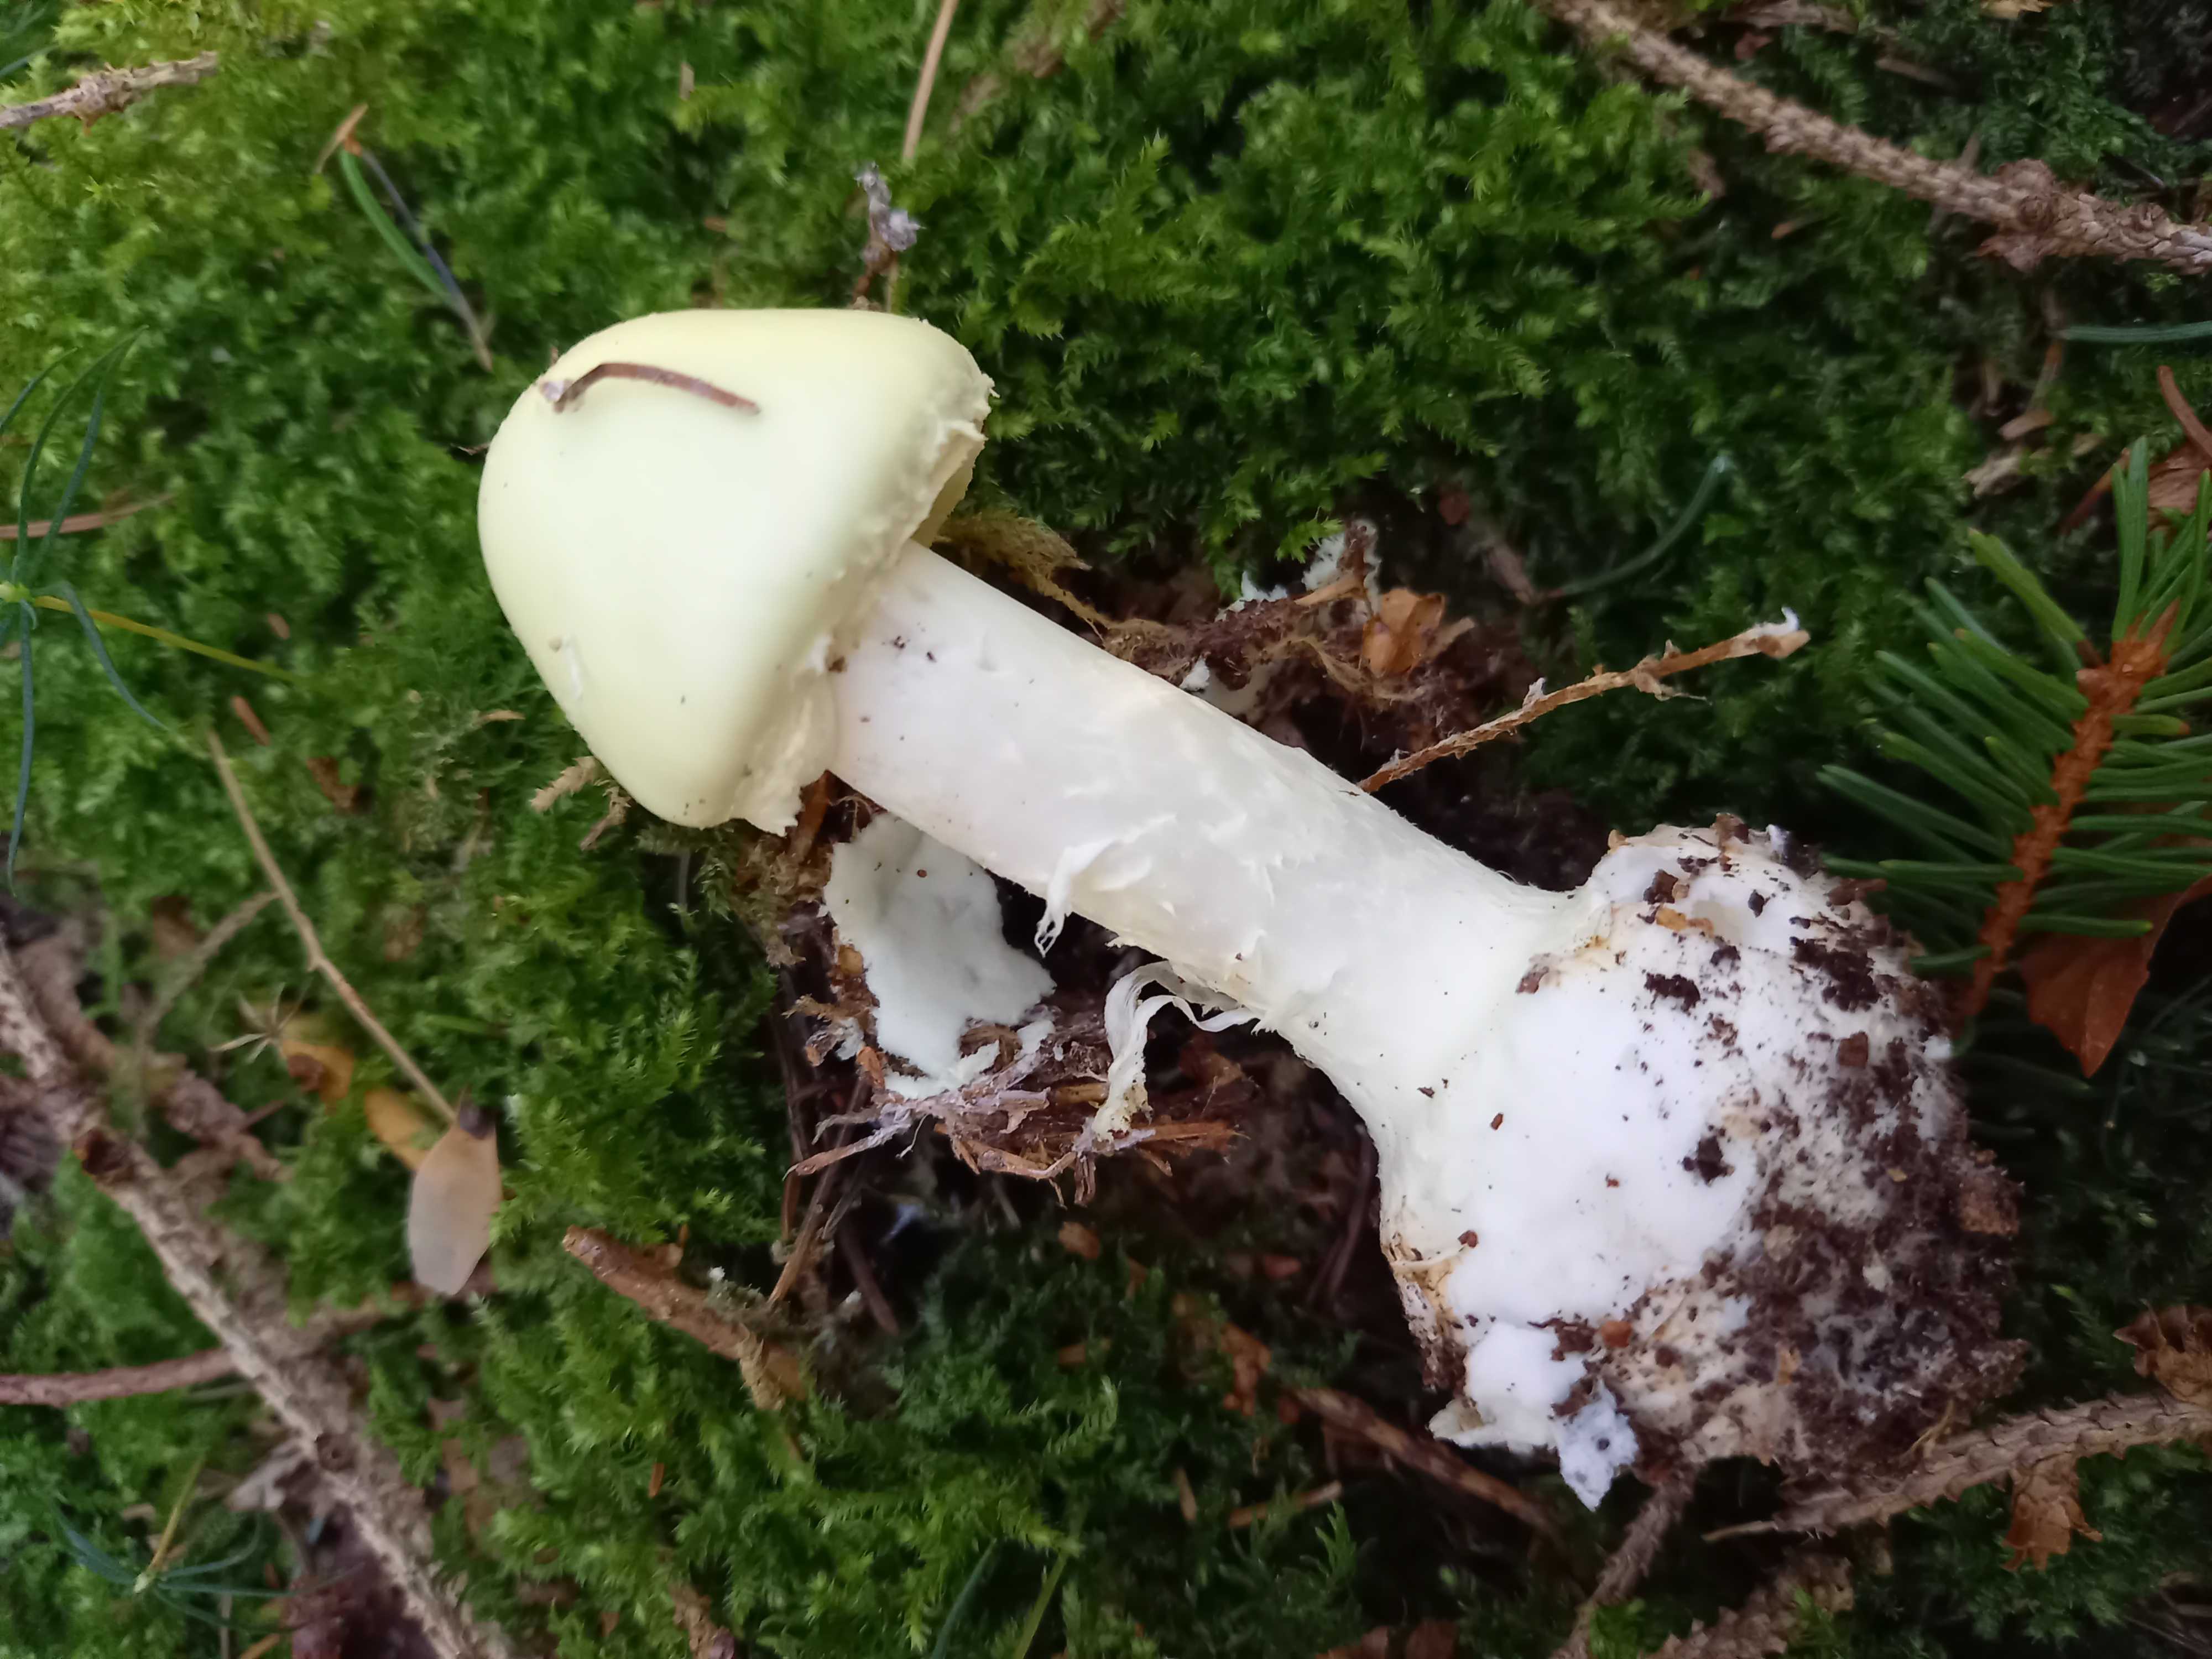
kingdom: Fungi
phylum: Basidiomycota
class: Agaricomycetes
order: Agaricales
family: Amanitaceae
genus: Amanita
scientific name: Amanita citrina
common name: kugleknoldet fluesvamp
